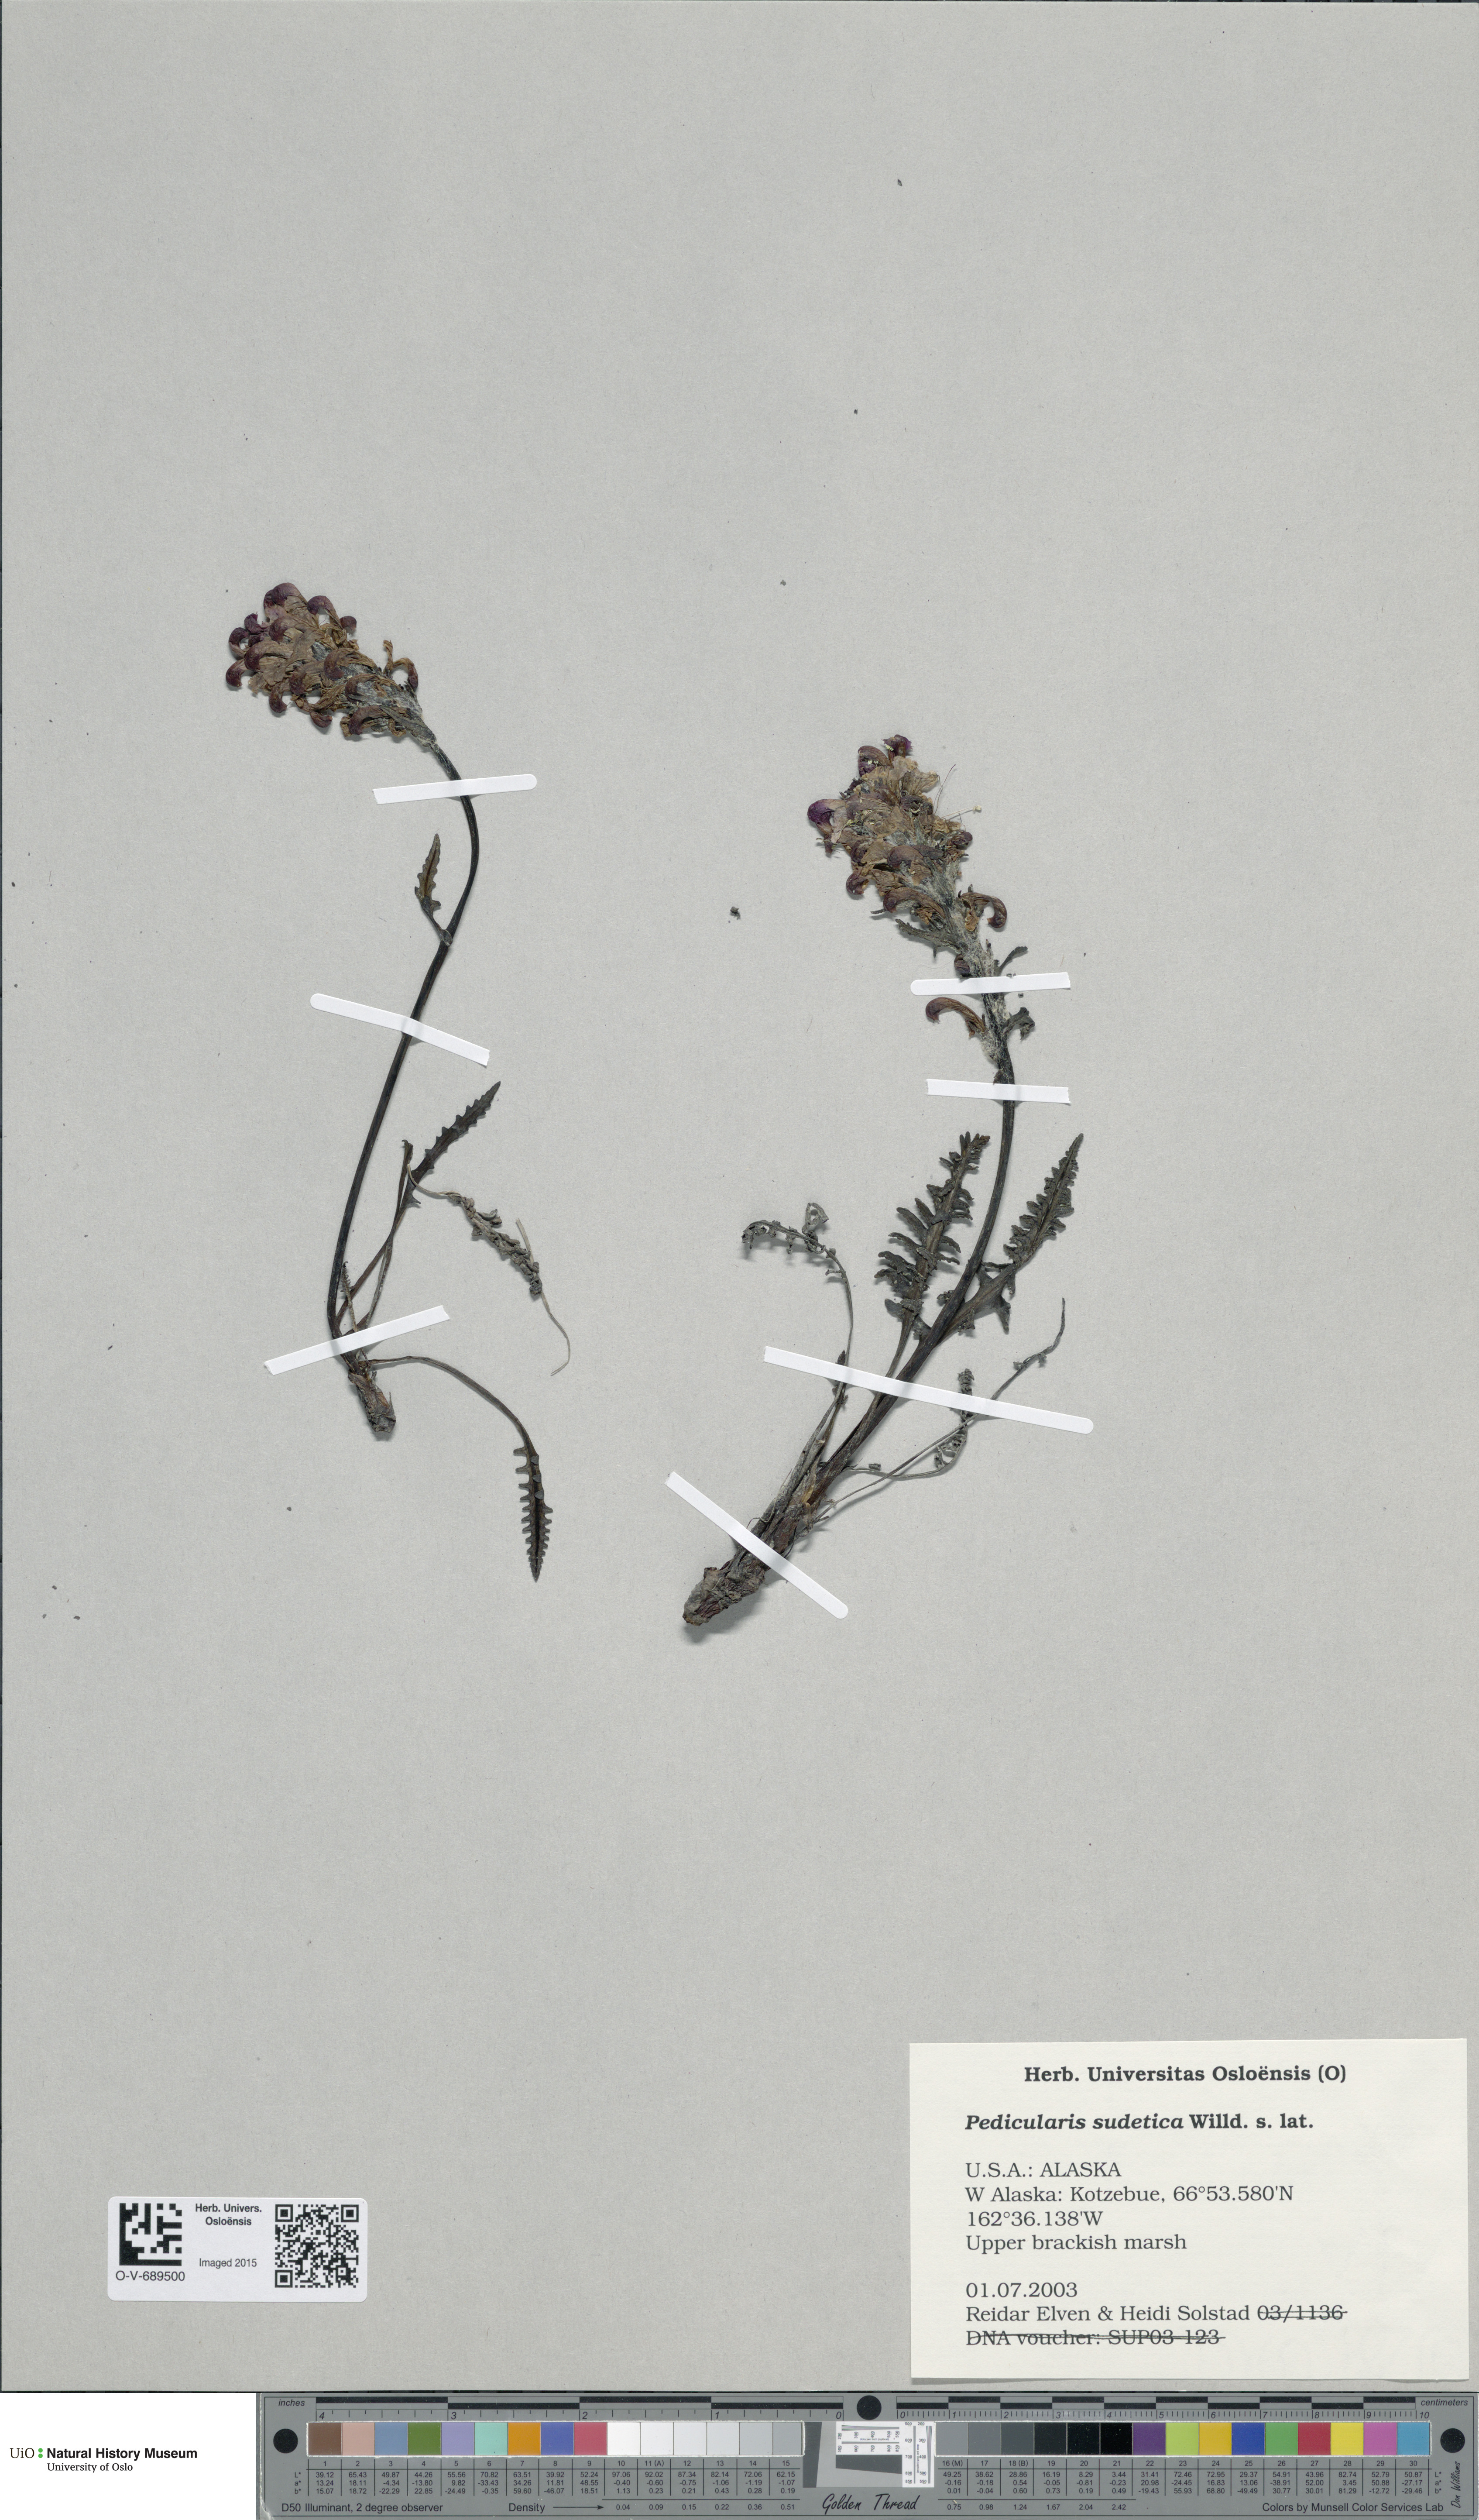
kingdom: Plantae
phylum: Tracheophyta
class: Magnoliopsida
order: Lamiales
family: Orobanchaceae
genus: Pedicularis
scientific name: Pedicularis sudetica
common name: Sudeten lousewort
